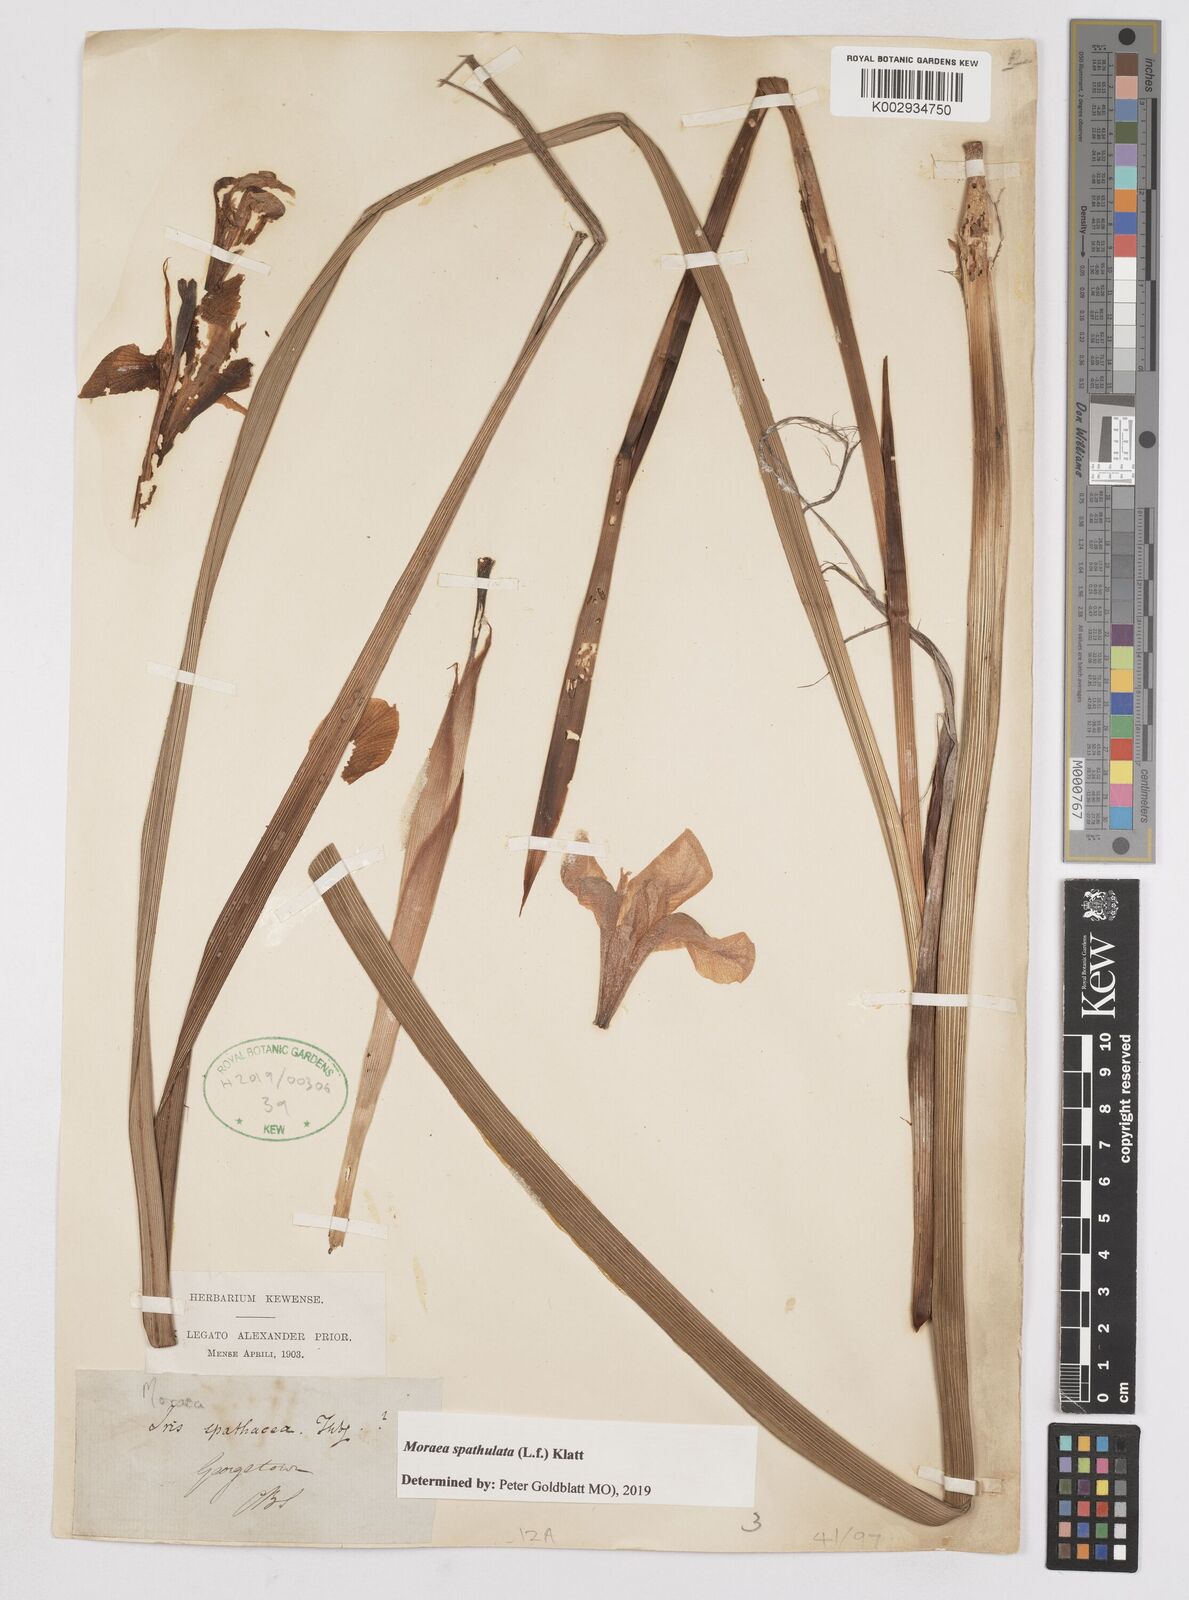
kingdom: Plantae
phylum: Tracheophyta
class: Liliopsida
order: Asparagales
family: Iridaceae
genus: Moraea
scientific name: Moraea spathulata
